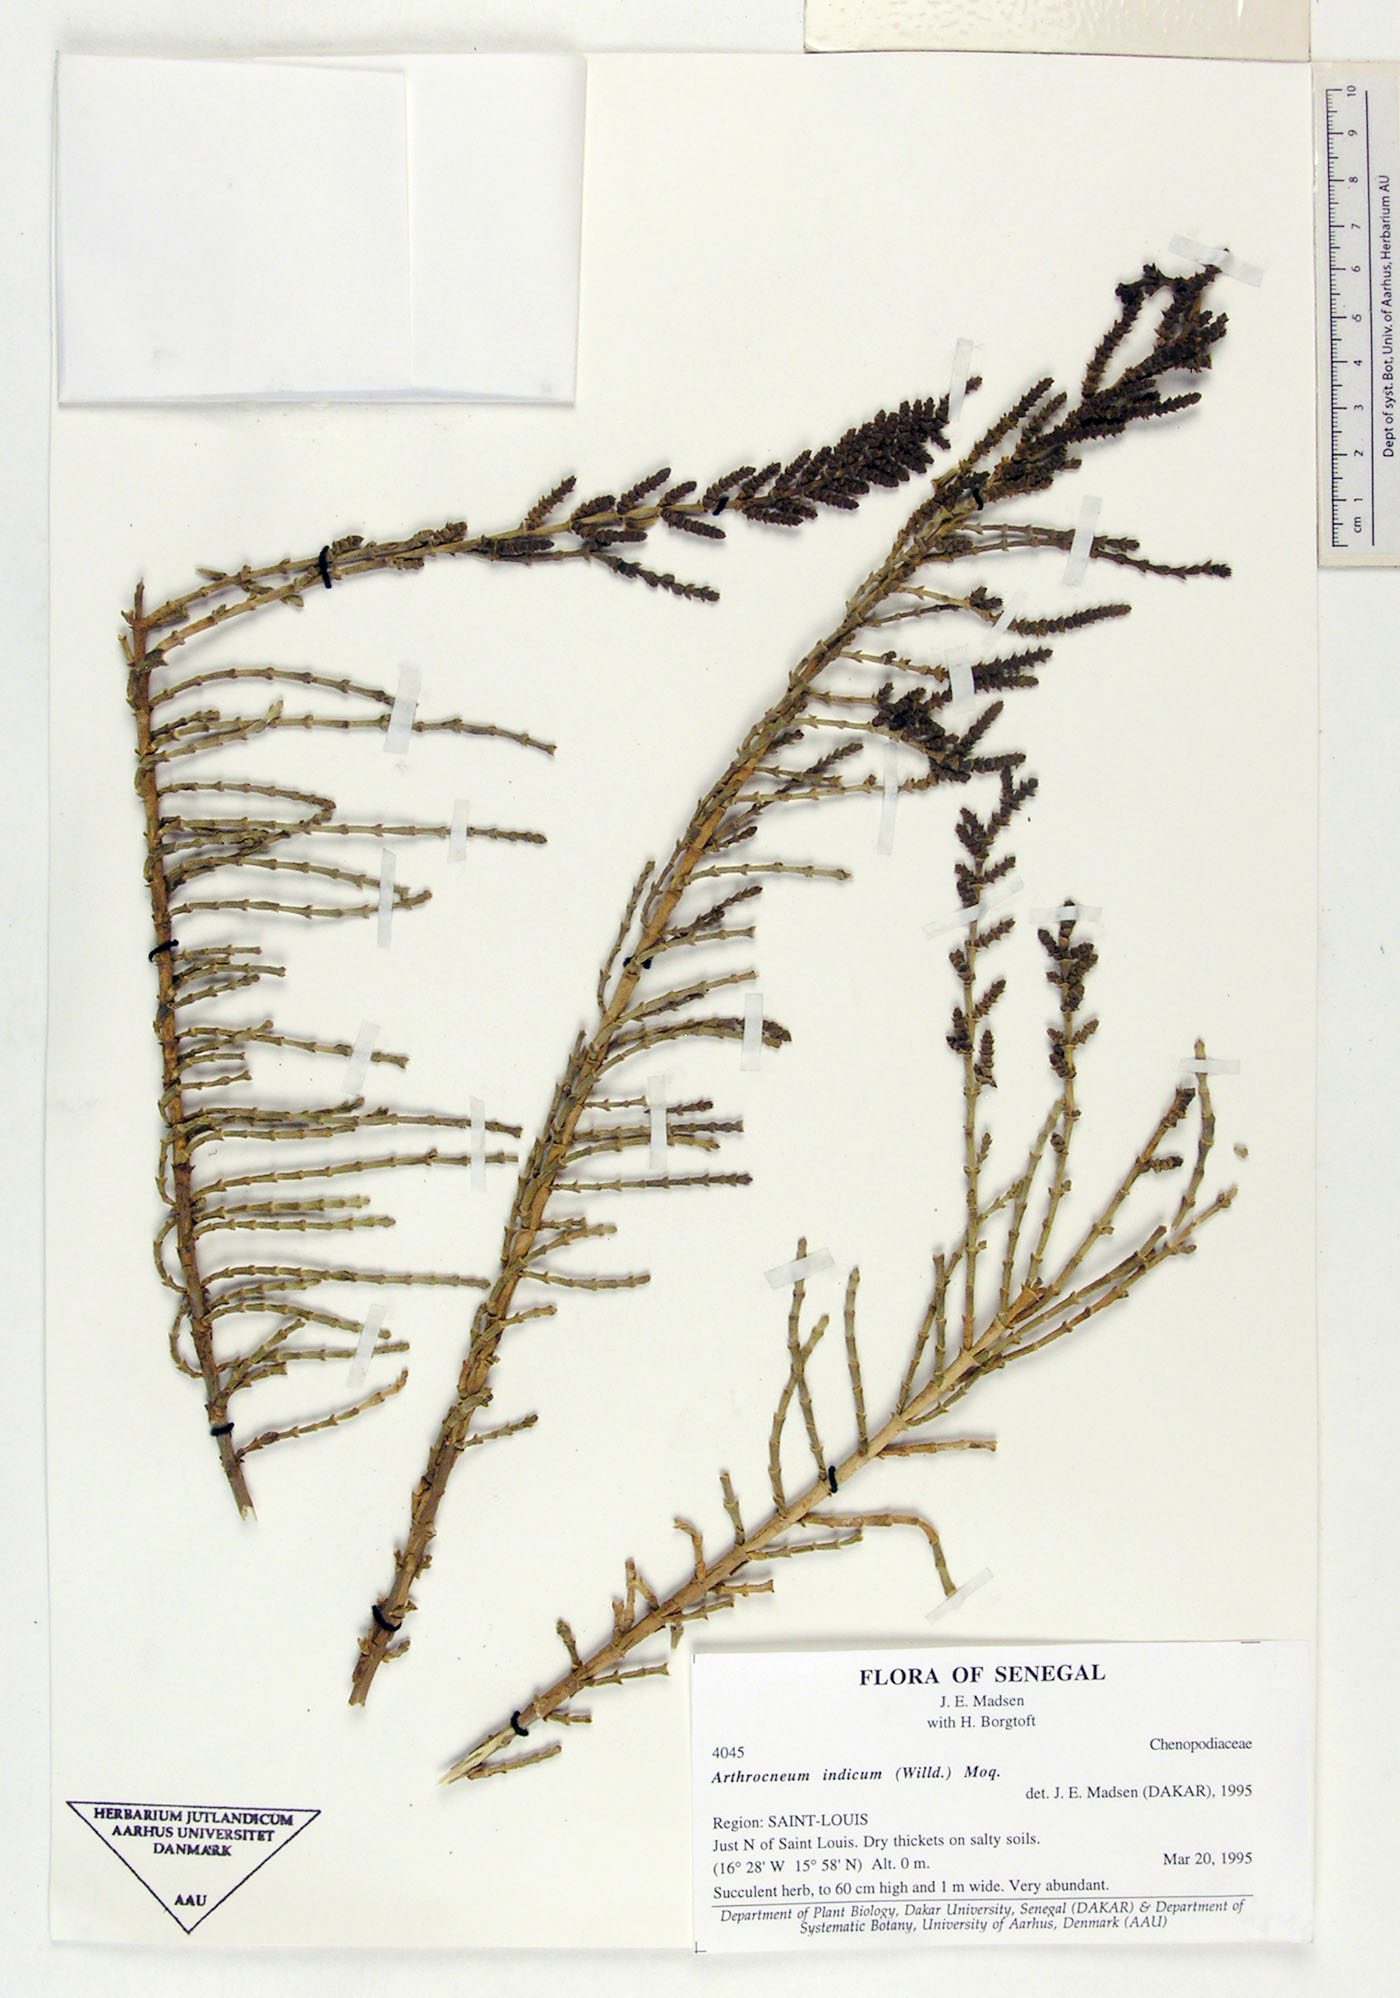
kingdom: Plantae
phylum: Tracheophyta
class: Magnoliopsida
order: Caryophyllales
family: Amaranthaceae
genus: Arthrocaulon
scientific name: Arthrocaulon macrostachyum
